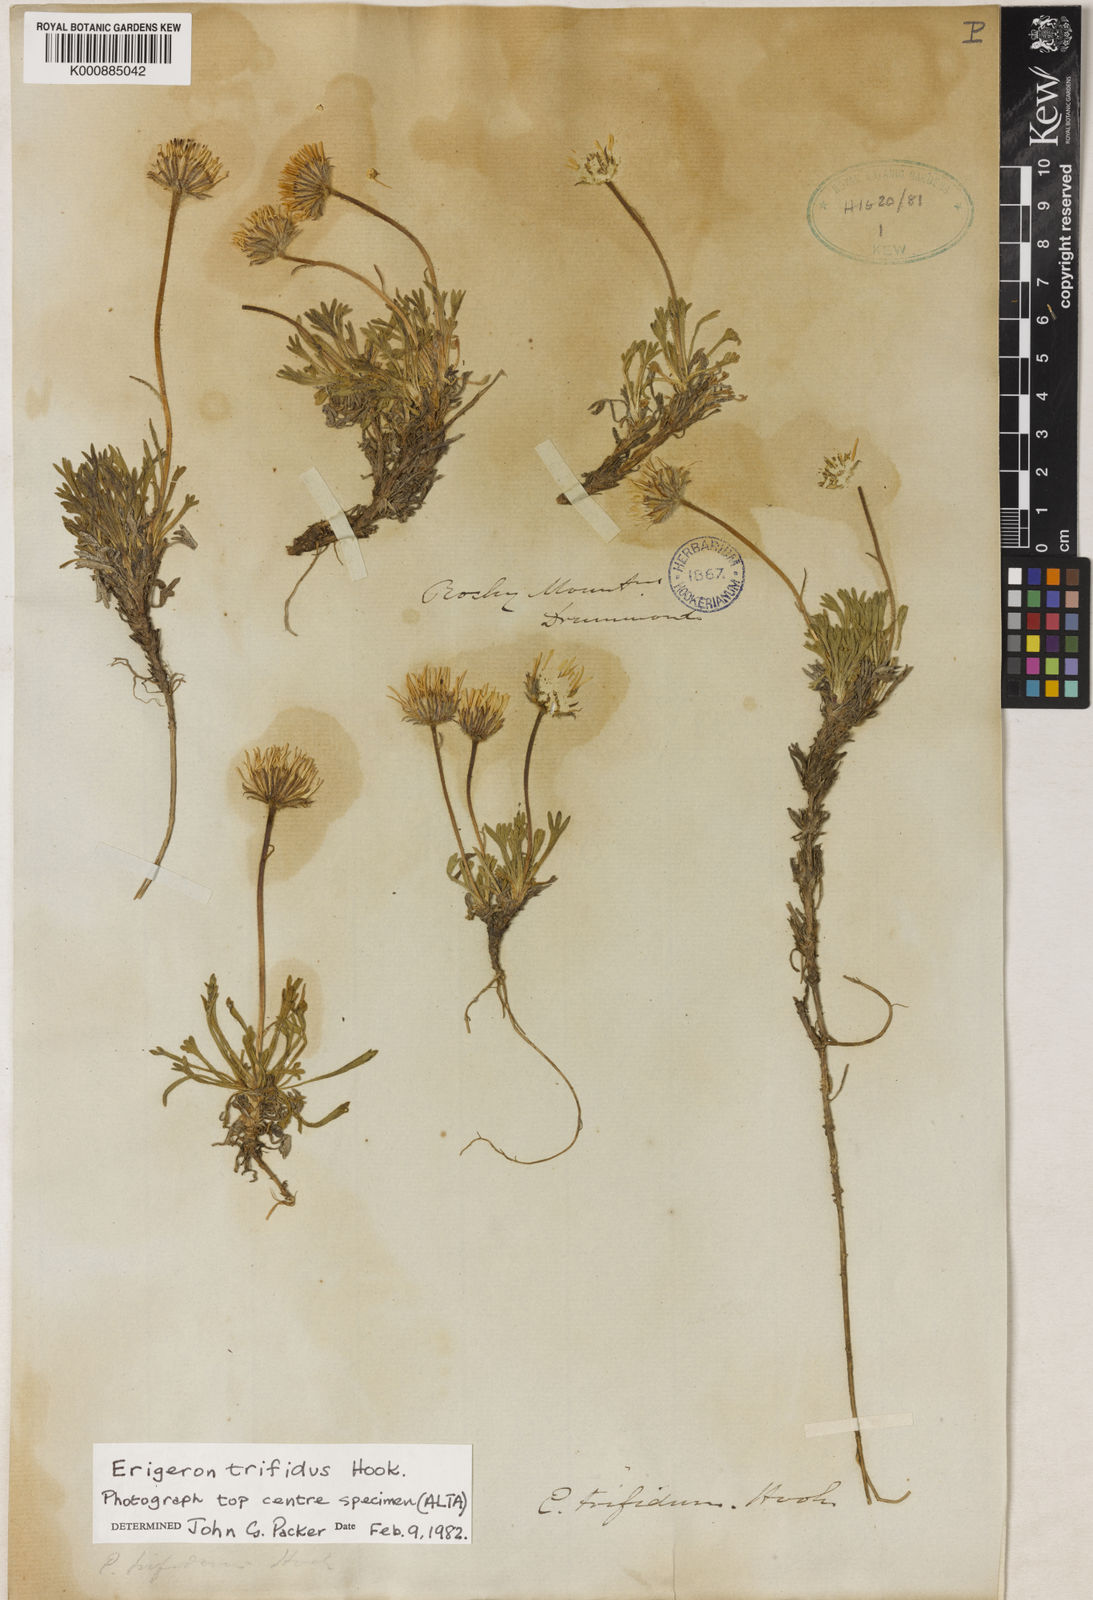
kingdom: Plantae
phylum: Tracheophyta
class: Magnoliopsida
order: Asterales
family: Asteraceae
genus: Erigeron
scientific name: Erigeron compositus
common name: Dwarf mountain fleabane
